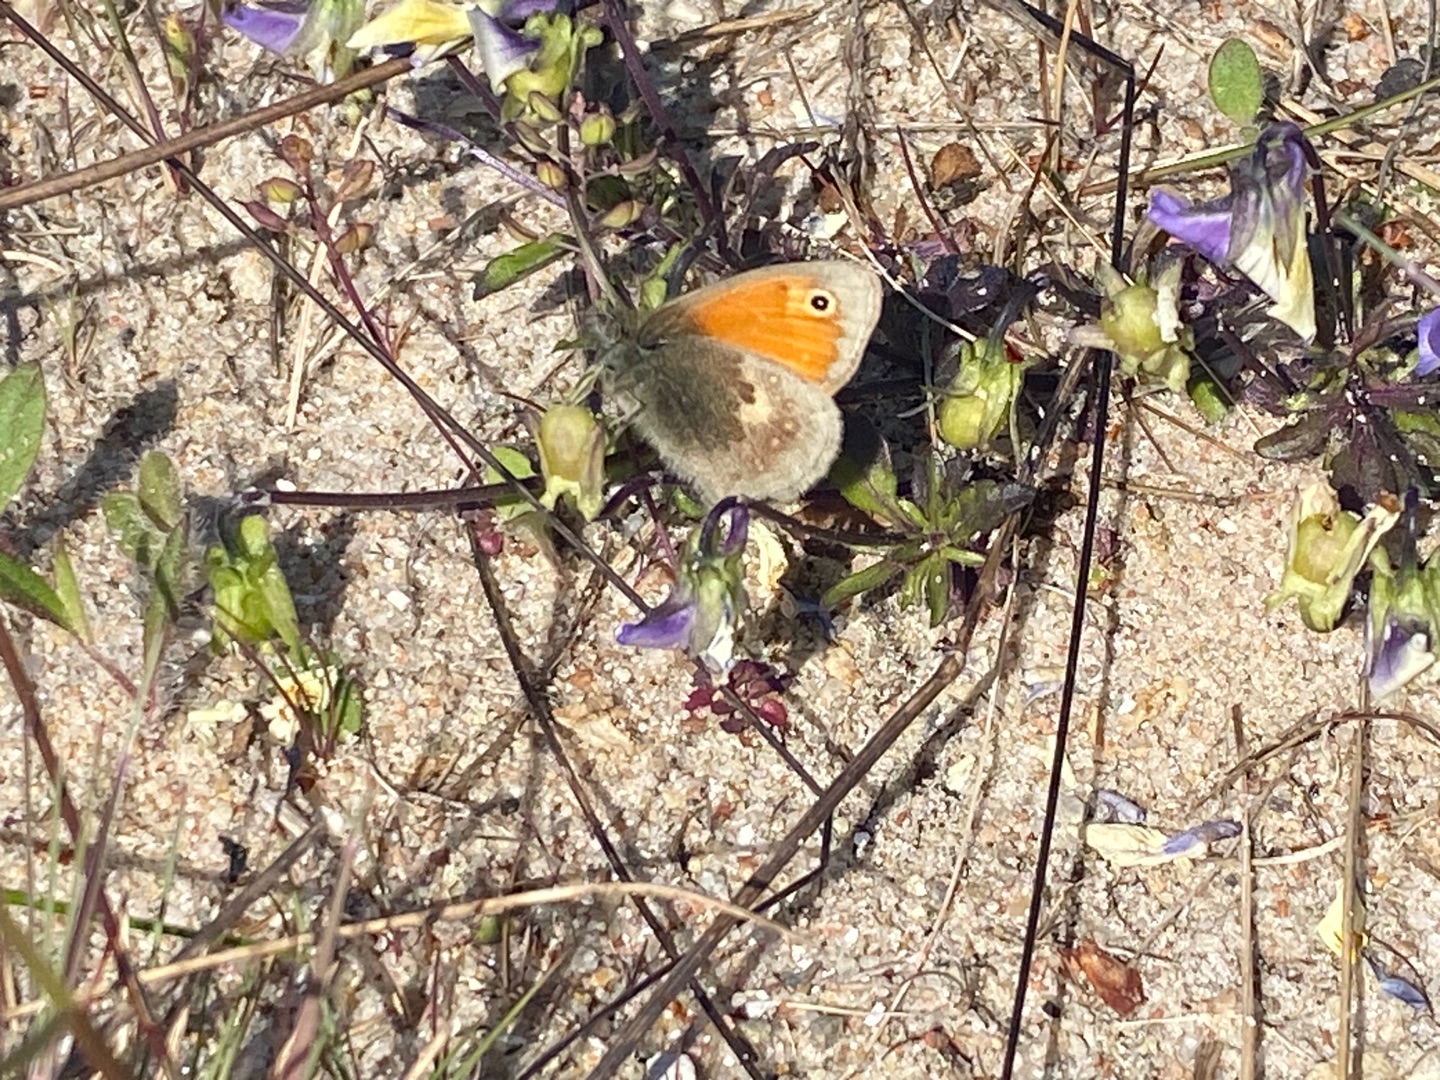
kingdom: Animalia
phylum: Arthropoda
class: Insecta
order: Lepidoptera
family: Nymphalidae
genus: Coenonympha
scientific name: Coenonympha pamphilus
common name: Okkergul randøje
